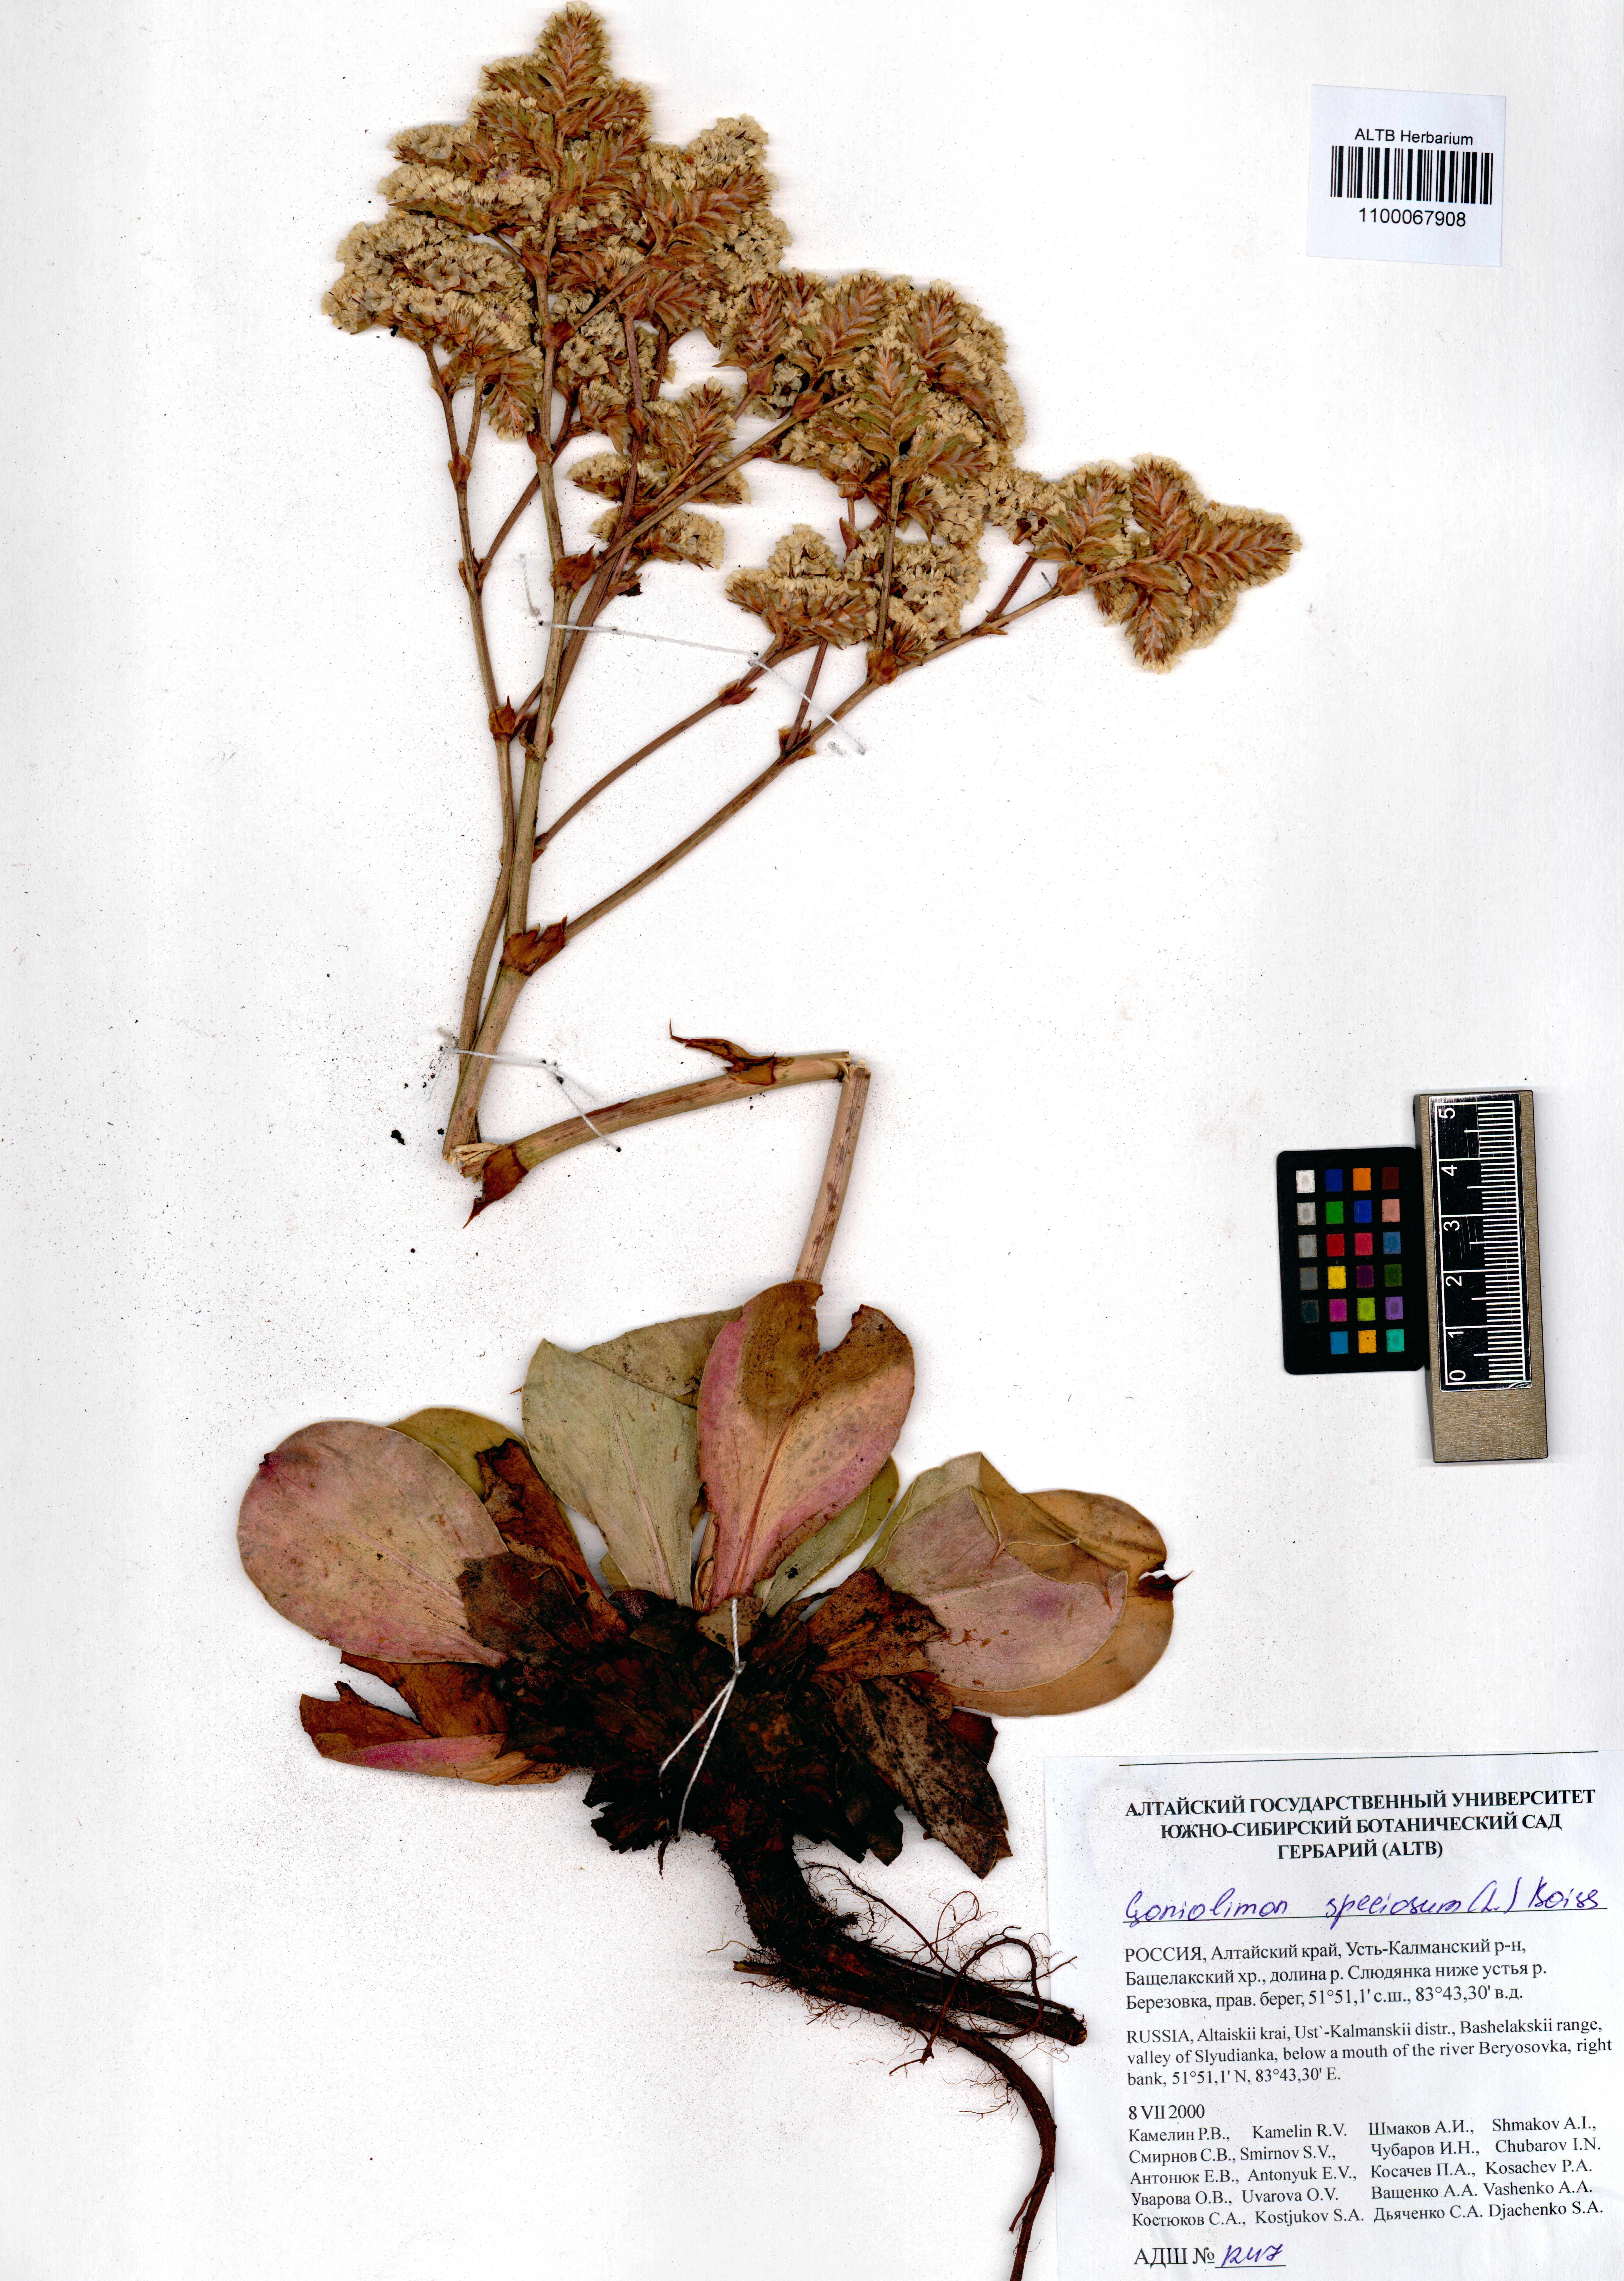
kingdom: Plantae
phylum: Tracheophyta
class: Magnoliopsida
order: Caryophyllales
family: Plumbaginaceae
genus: Goniolimon
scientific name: Goniolimon speciosum
